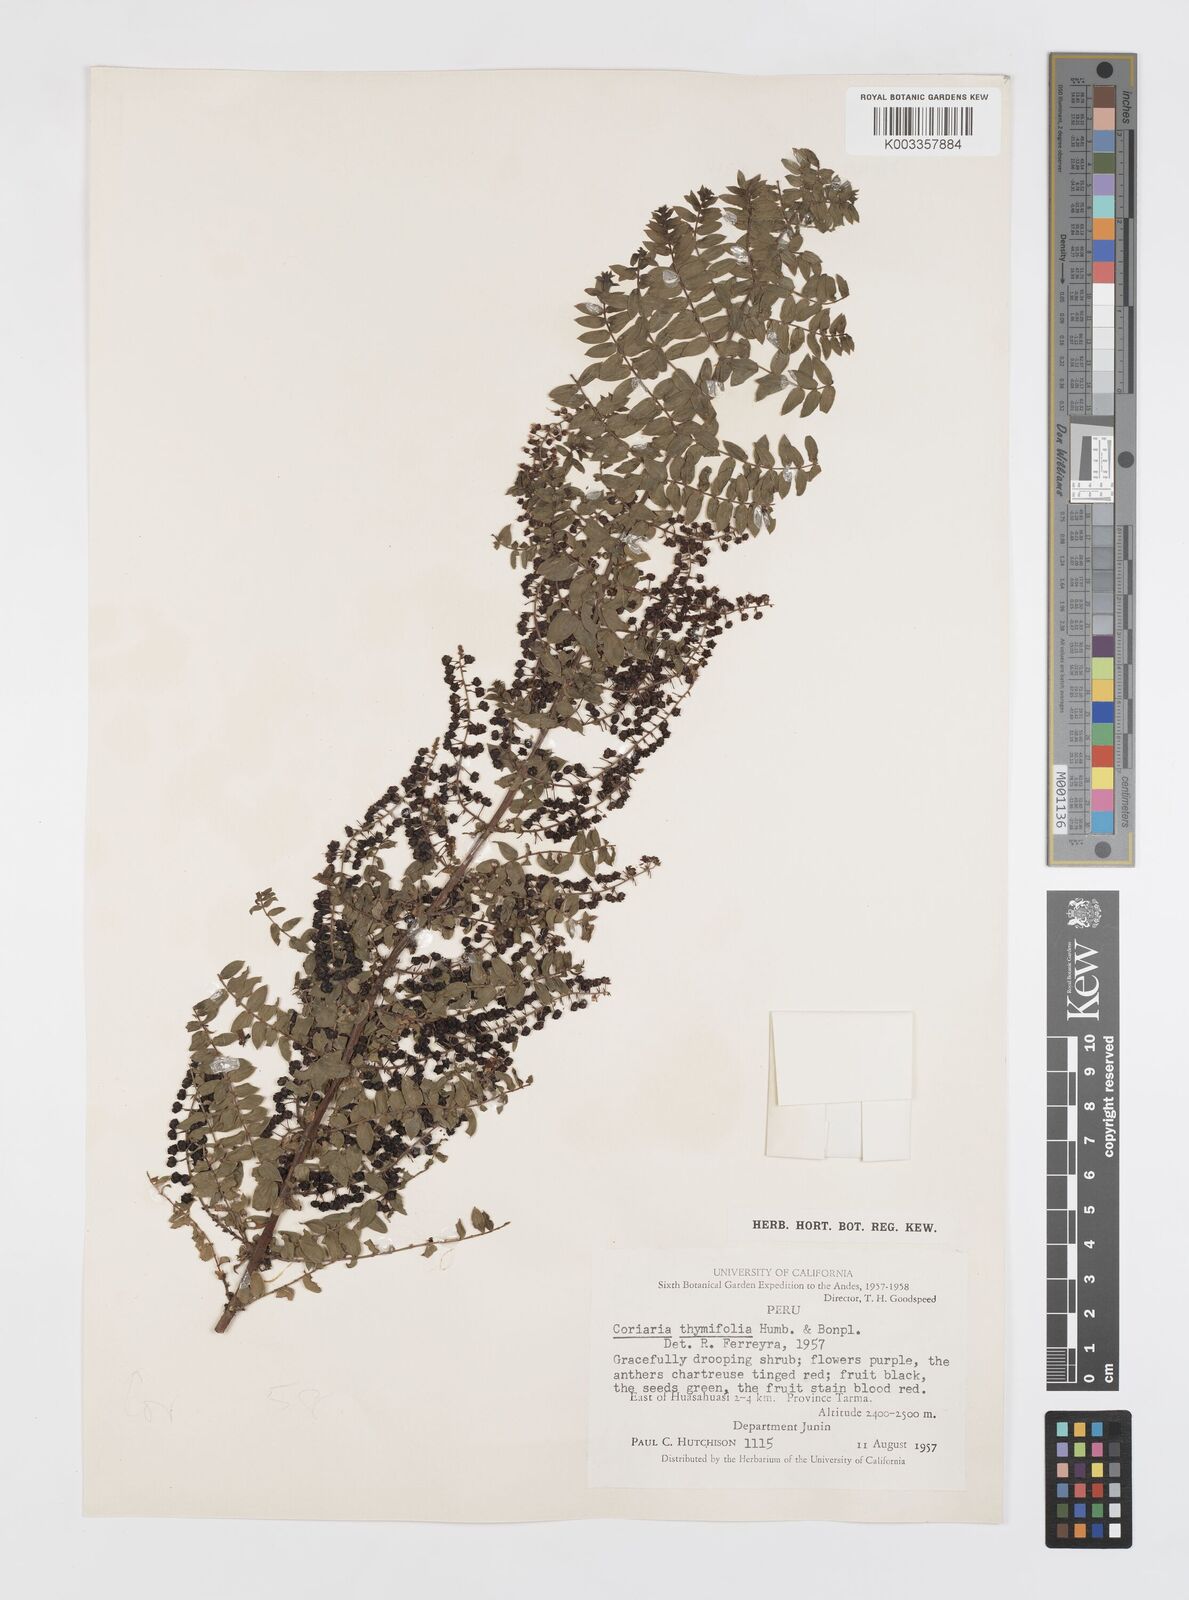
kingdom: Plantae
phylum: Tracheophyta
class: Magnoliopsida
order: Cucurbitales
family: Coriariaceae
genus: Coriaria
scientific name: Coriaria microphylla
